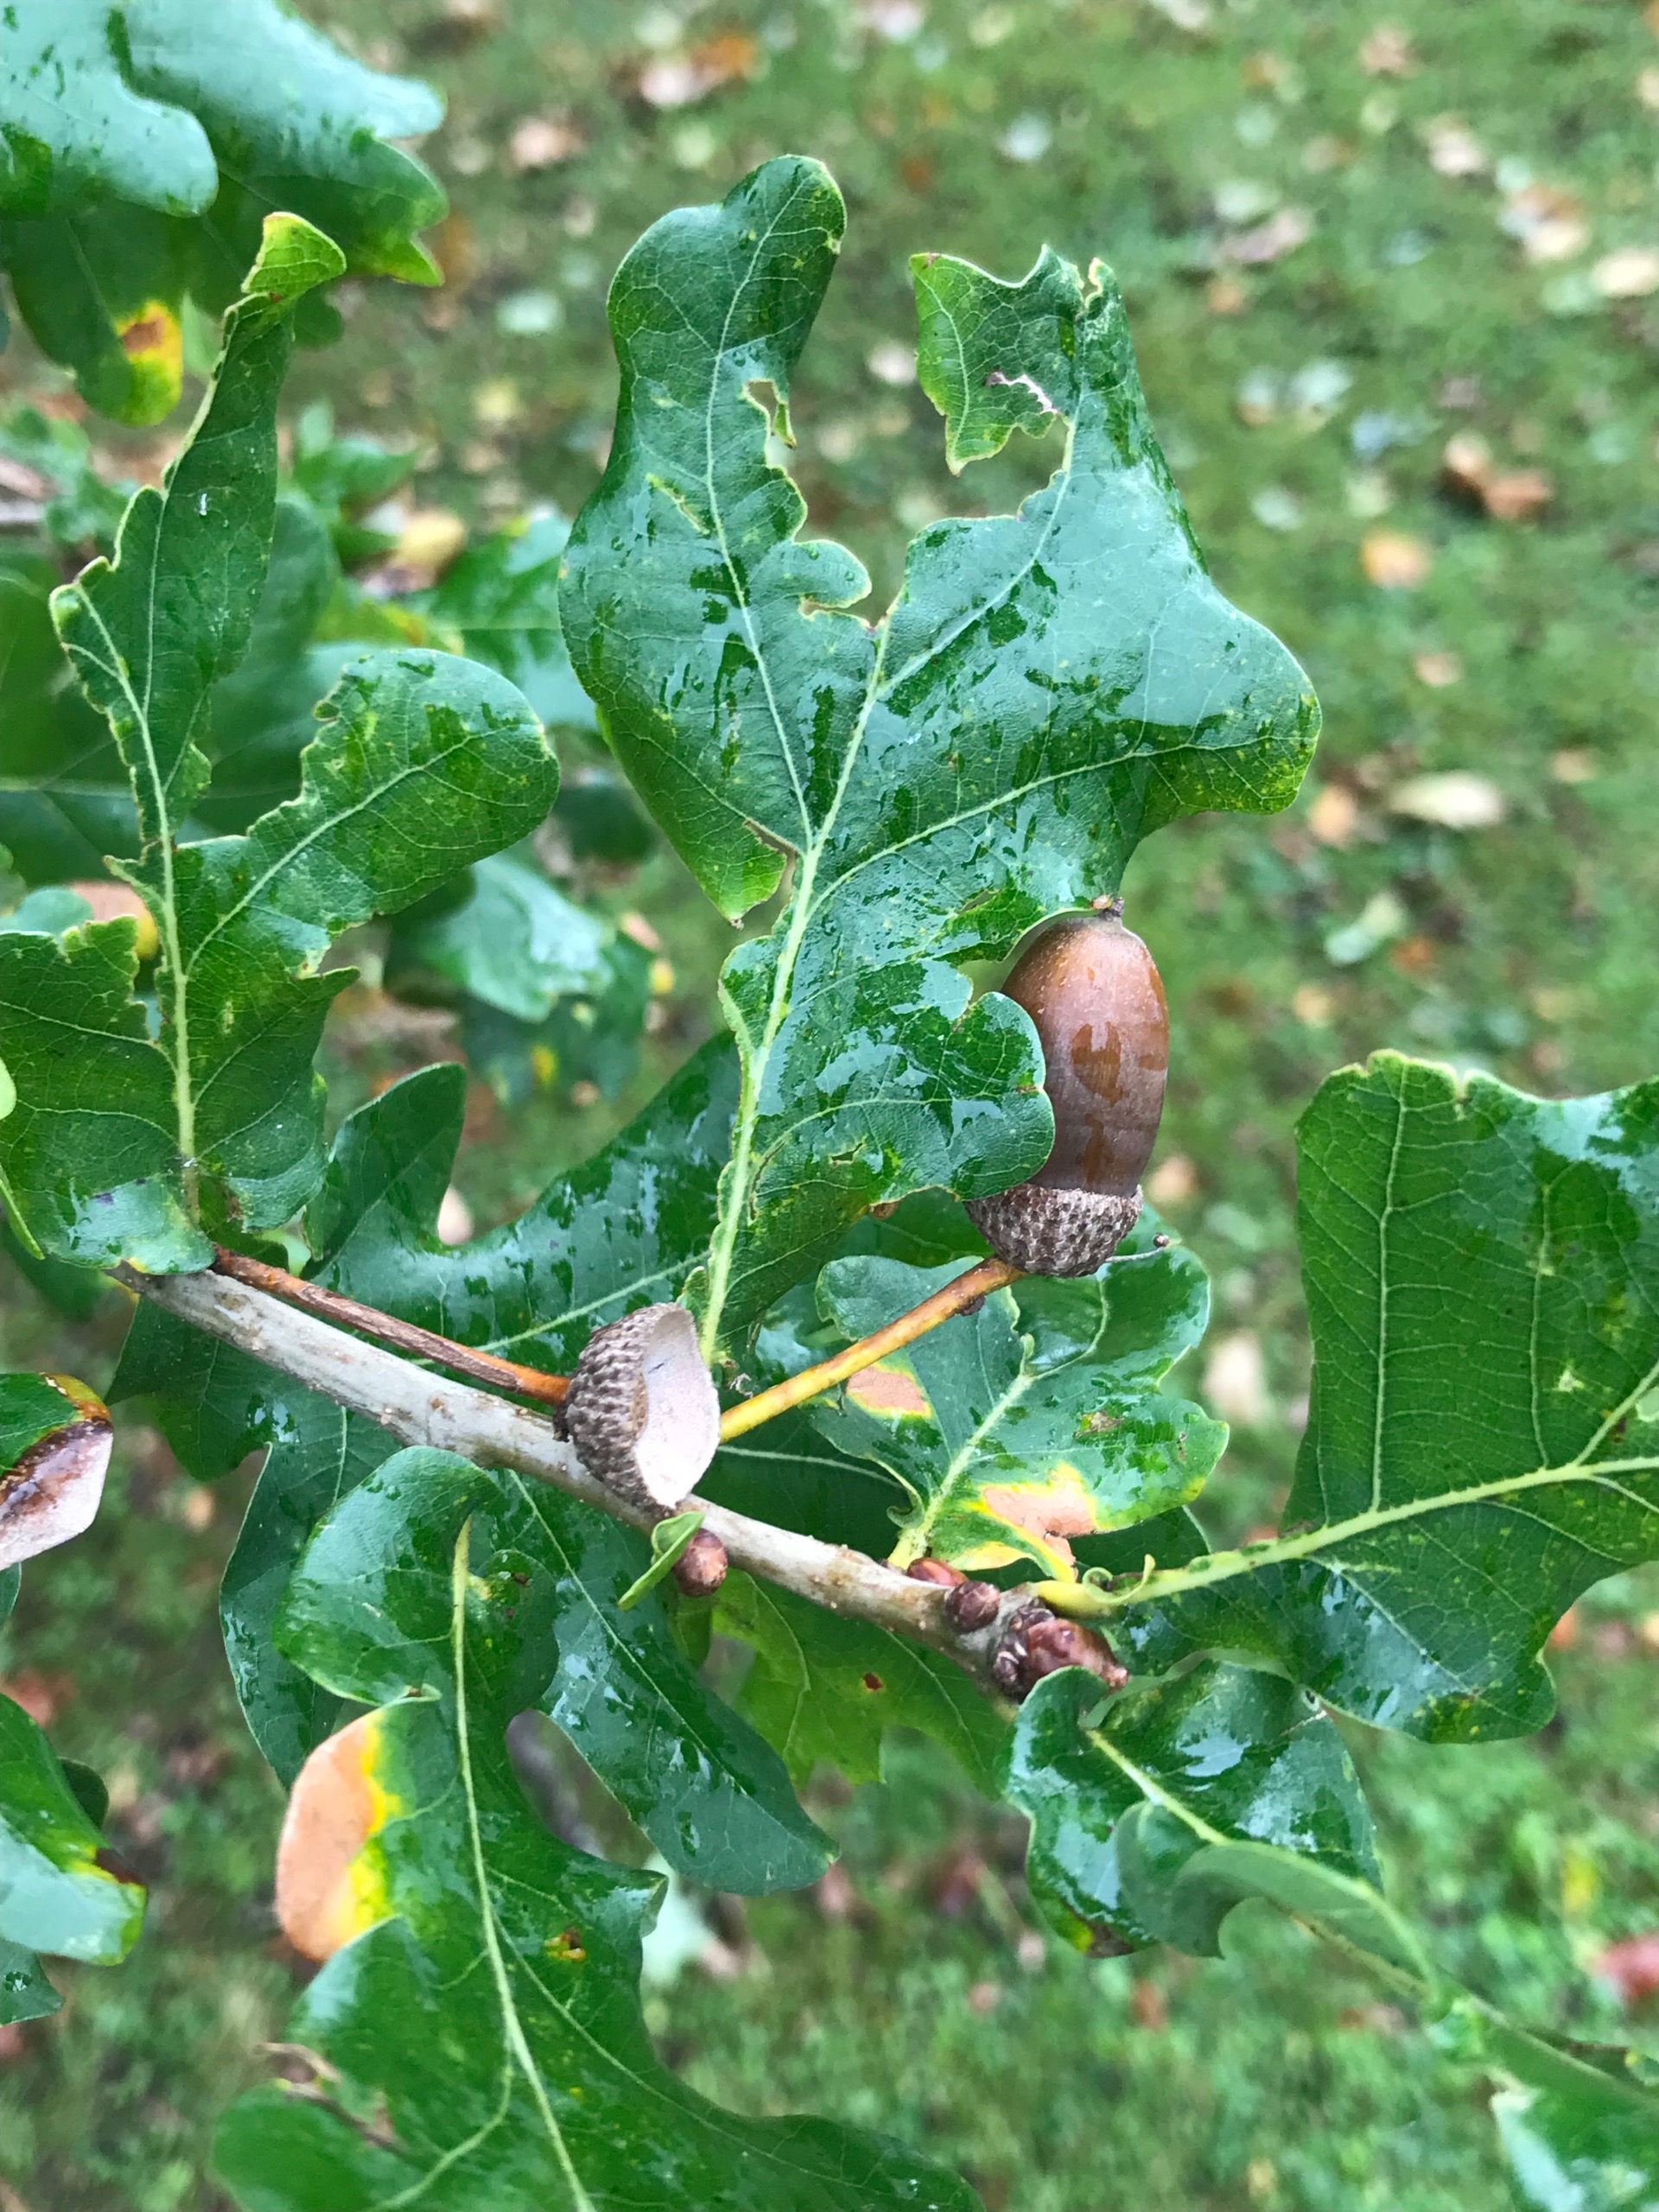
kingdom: Plantae
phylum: Tracheophyta
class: Magnoliopsida
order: Fagales
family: Fagaceae
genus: Quercus
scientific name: Quercus robur
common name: Stilk-eg/almindelig eg
